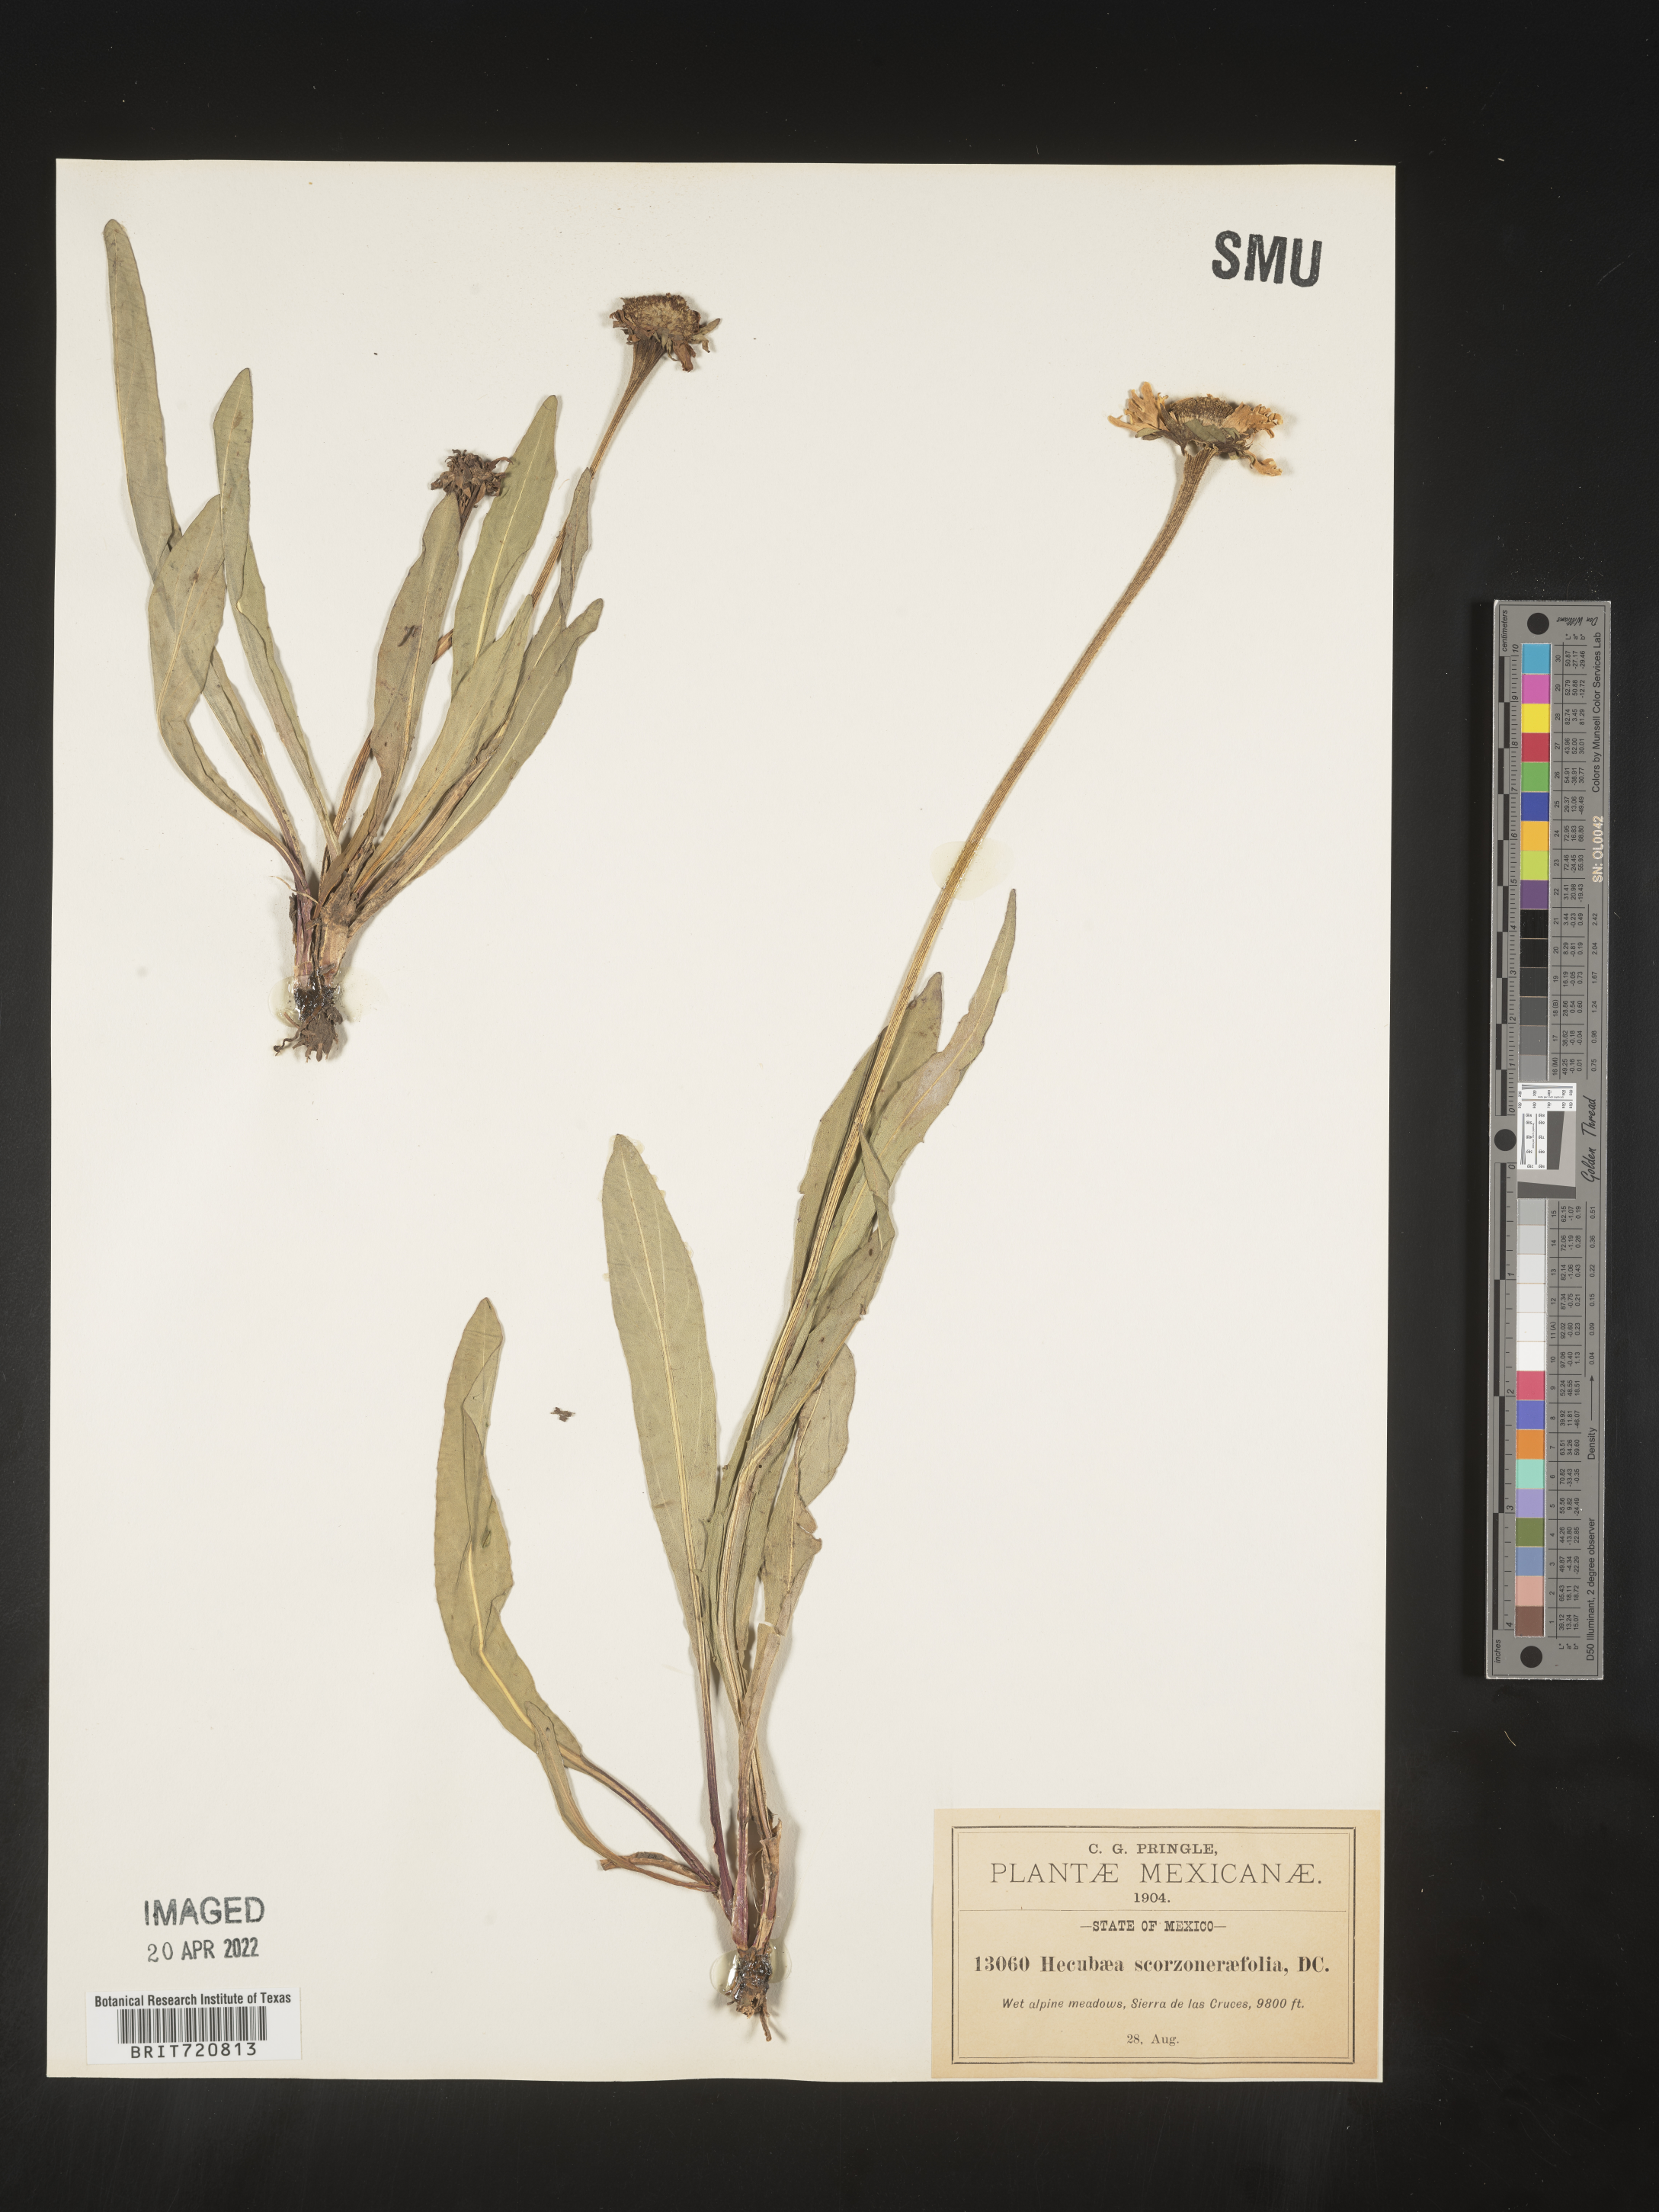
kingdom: Plantae
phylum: Tracheophyta
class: Magnoliopsida
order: Asterales
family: Asteraceae
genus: Helenium
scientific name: Helenium
